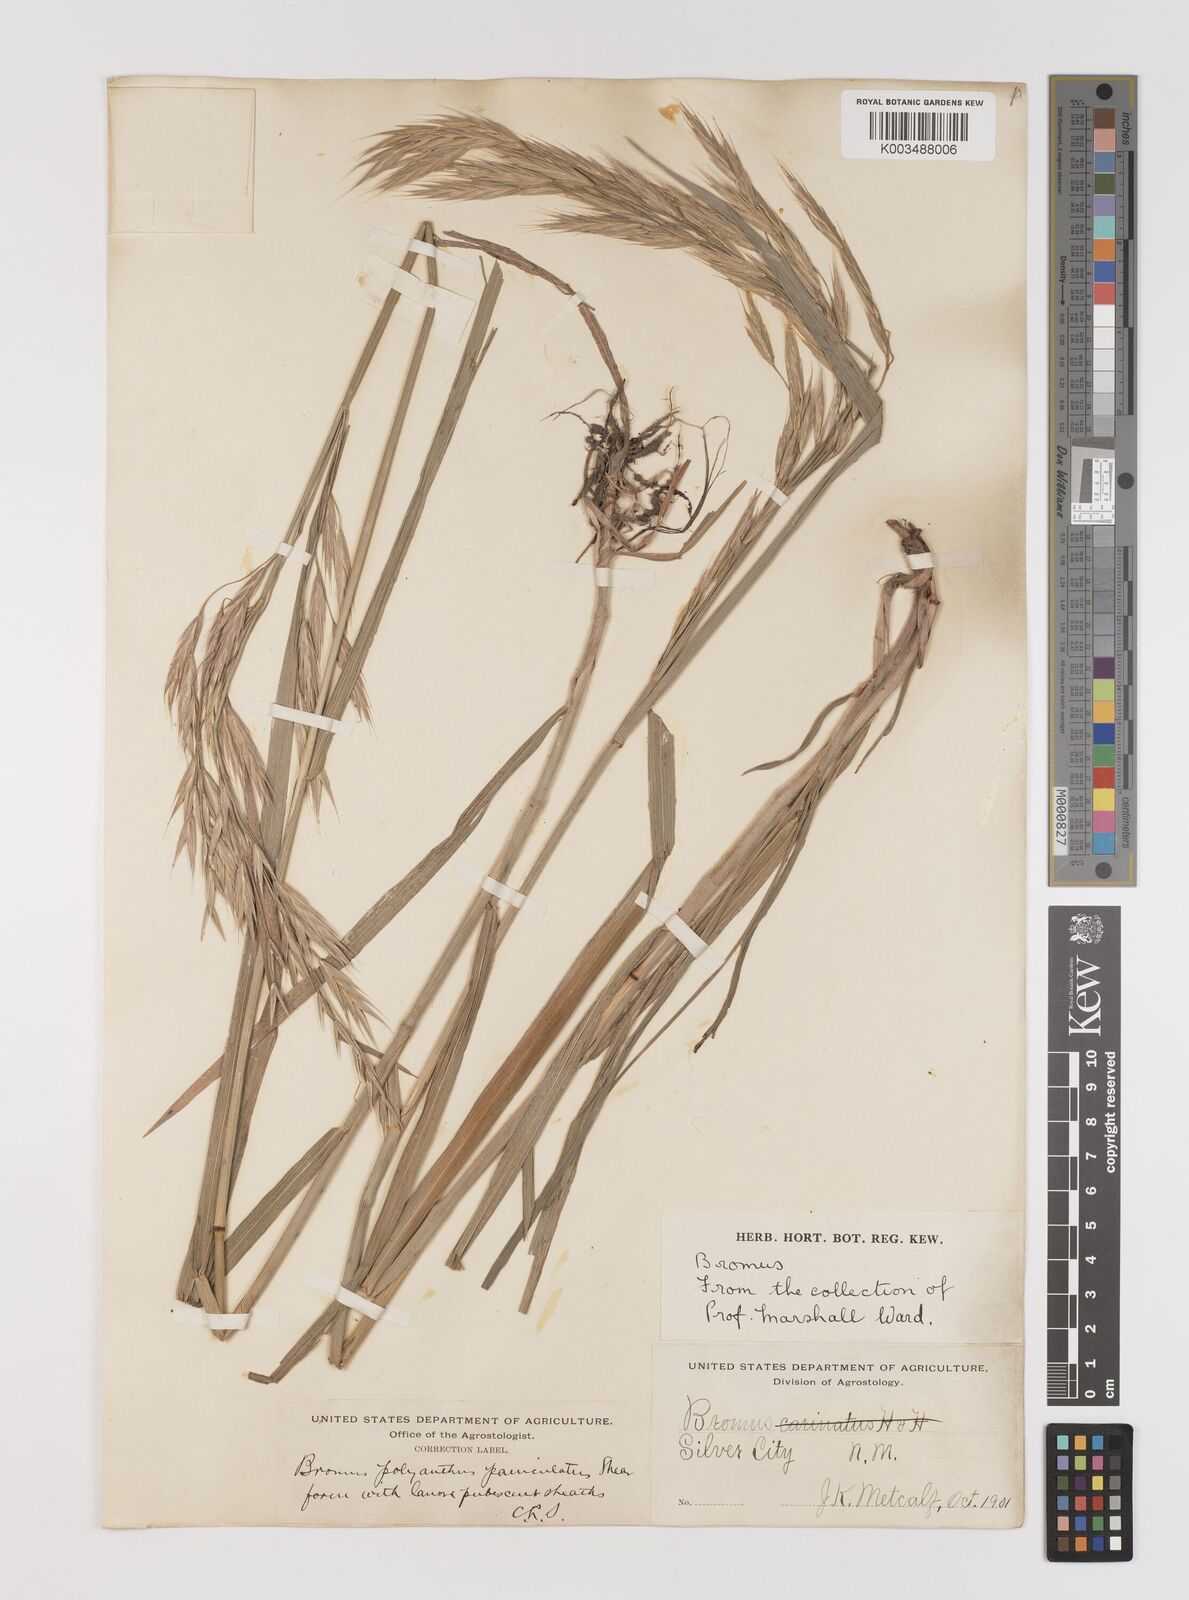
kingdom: Plantae
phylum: Tracheophyta
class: Liliopsida
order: Poales
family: Poaceae
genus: Bromus
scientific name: Bromus polyanthus
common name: Great basin brome
